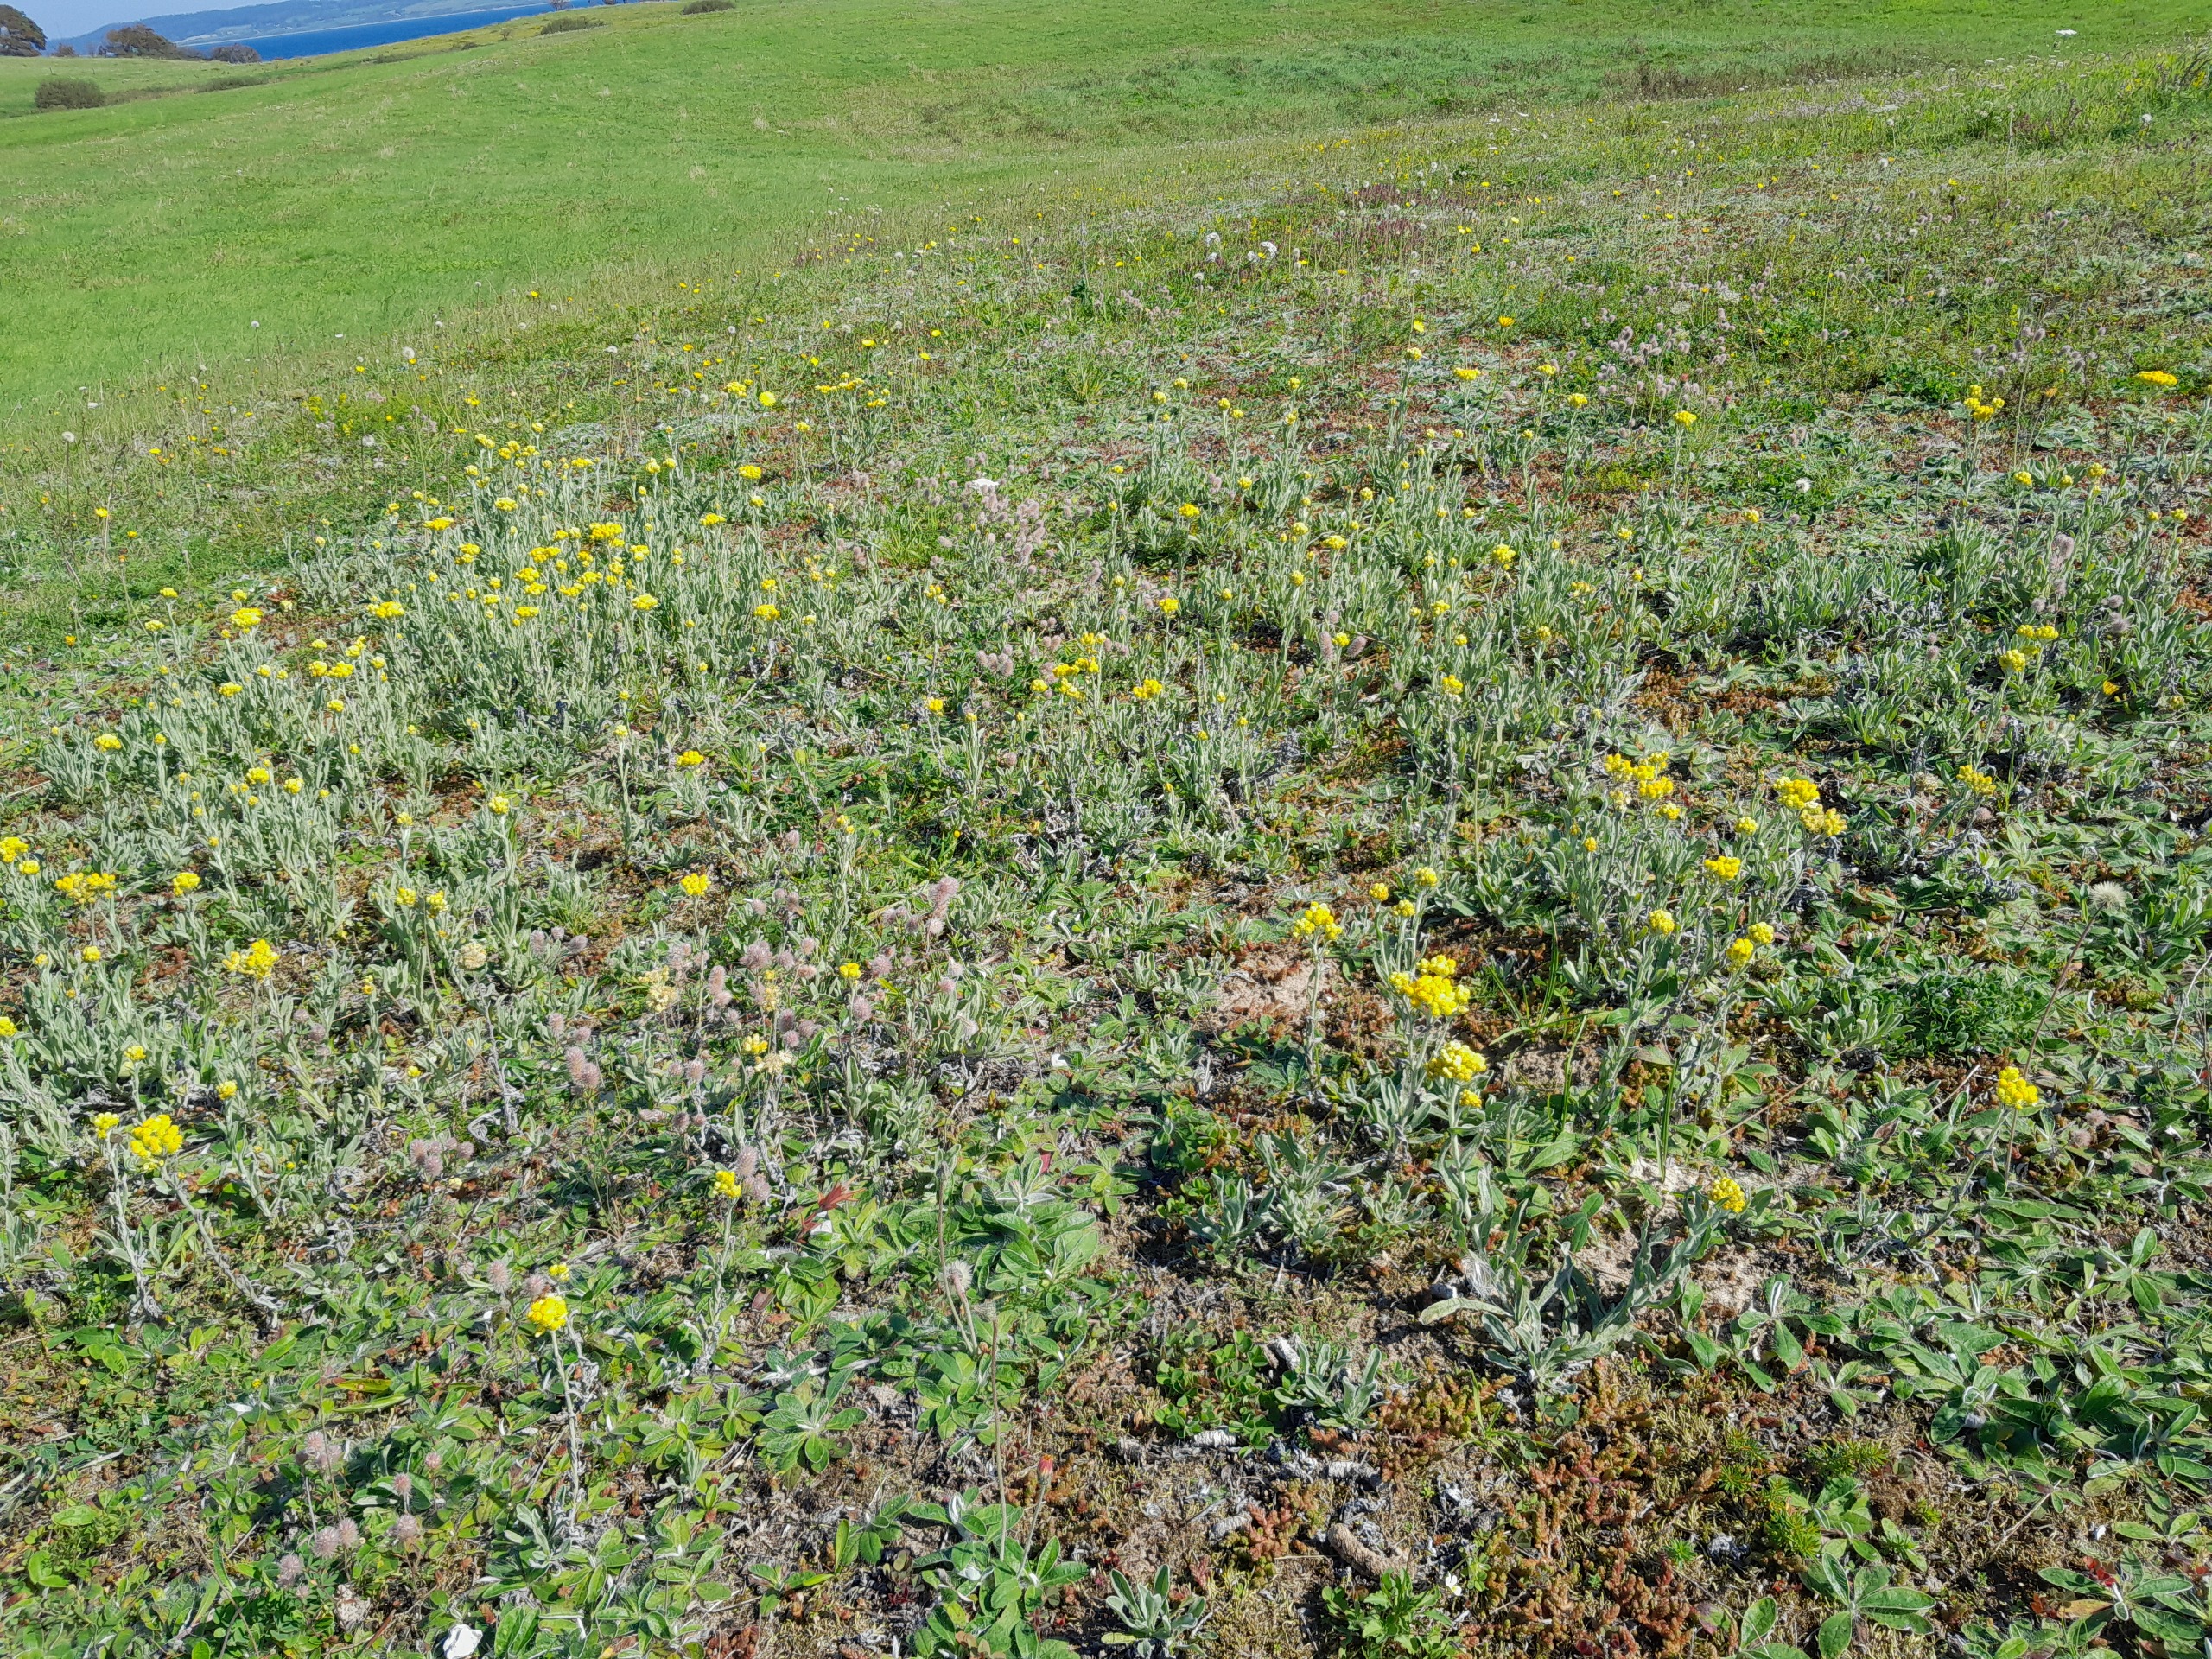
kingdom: Plantae
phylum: Tracheophyta
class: Magnoliopsida
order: Asterales
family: Asteraceae
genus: Helichrysum
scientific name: Helichrysum arenarium
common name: Gul evighedsblomst
